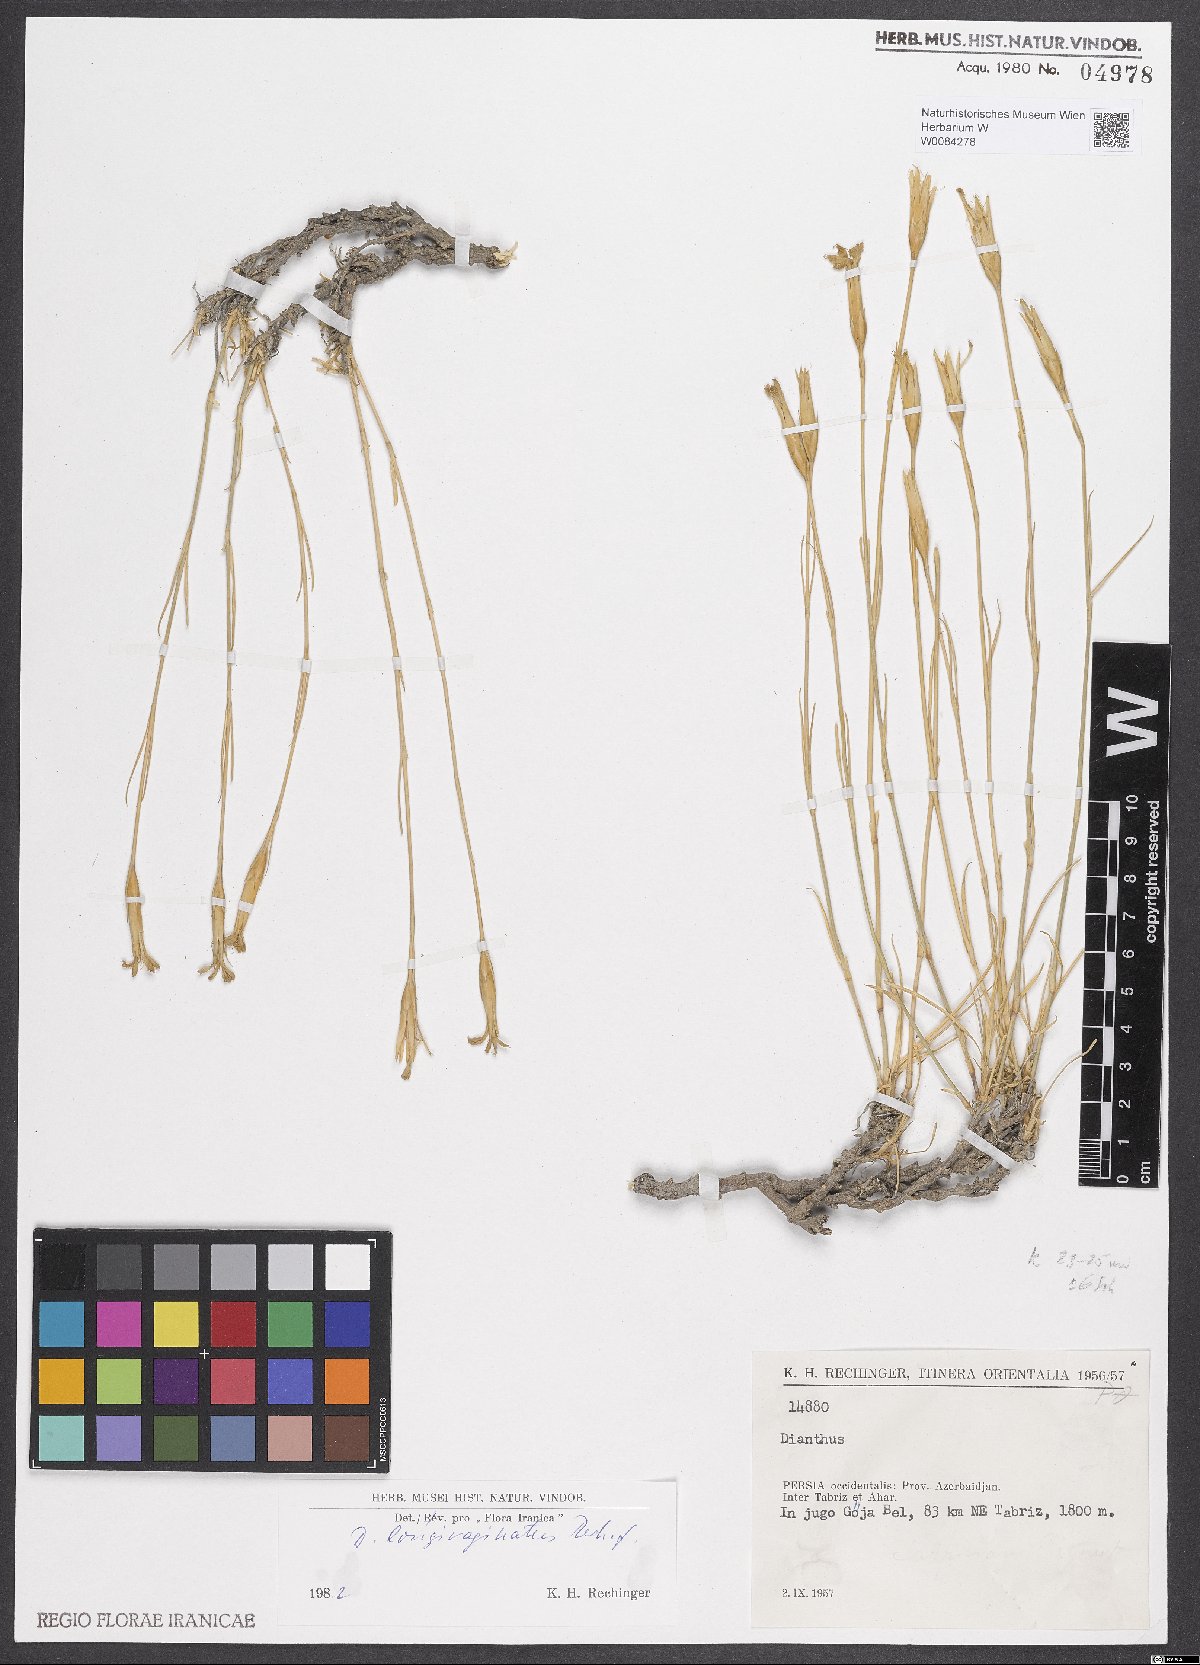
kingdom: Plantae
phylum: Tracheophyta
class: Magnoliopsida
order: Caryophyllales
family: Caryophyllaceae
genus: Dianthus
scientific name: Dianthus longivaginatus
